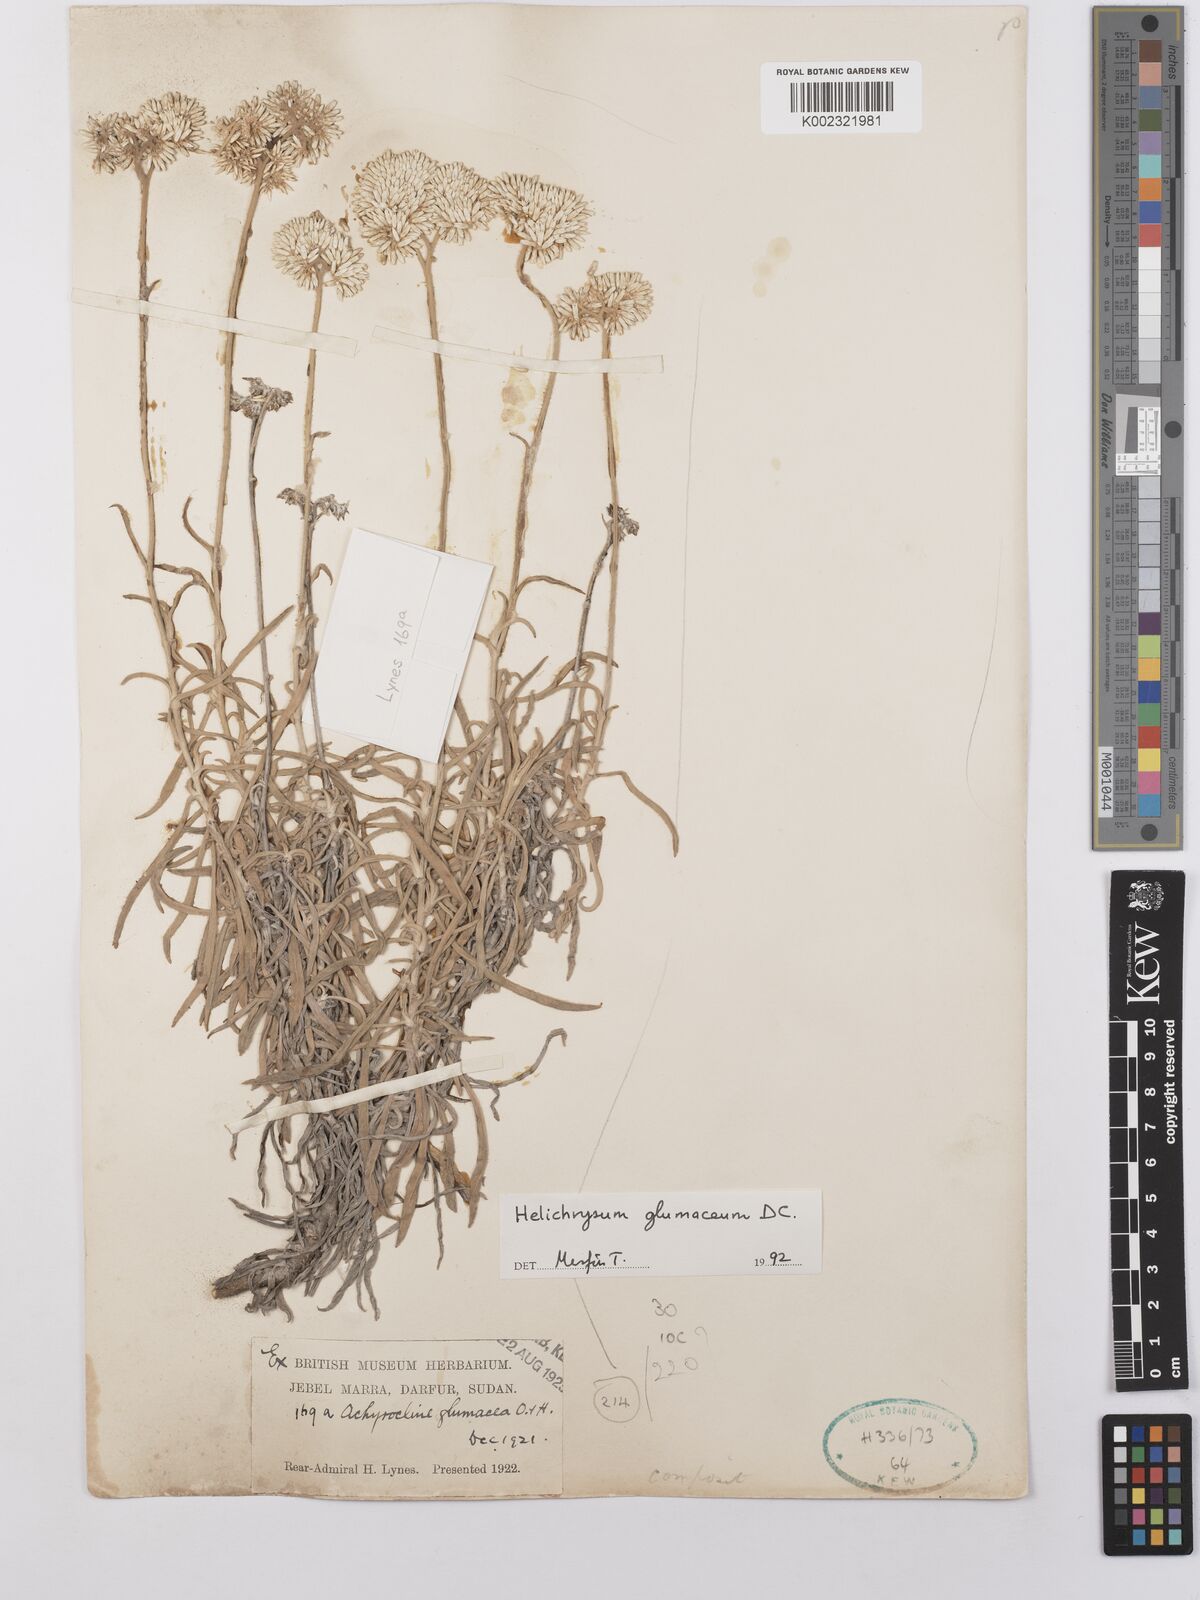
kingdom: Plantae
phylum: Tracheophyta
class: Magnoliopsida
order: Asterales
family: Asteraceae
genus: Helichrysum
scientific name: Helichrysum glumaceum
